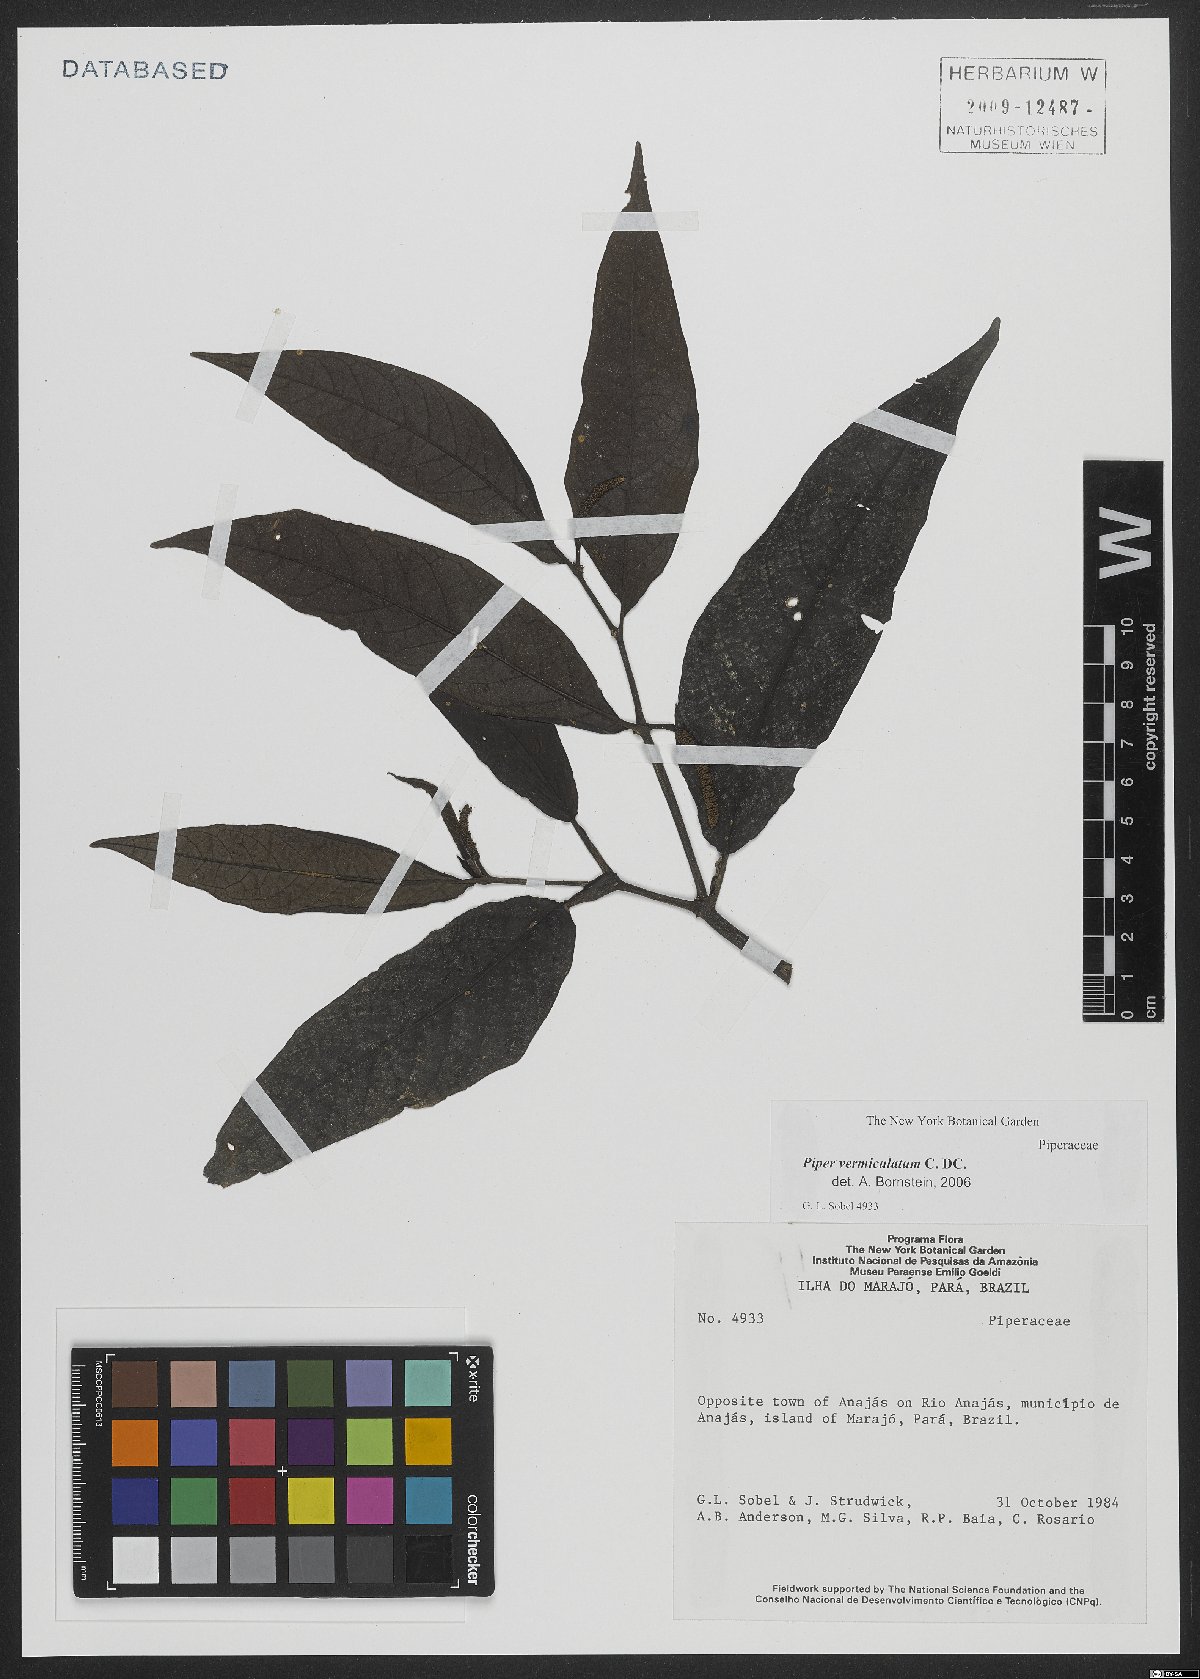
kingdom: Plantae
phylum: Tracheophyta
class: Magnoliopsida
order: Piperales
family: Piperaceae
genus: Piper
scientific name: Piper vermiculatum
